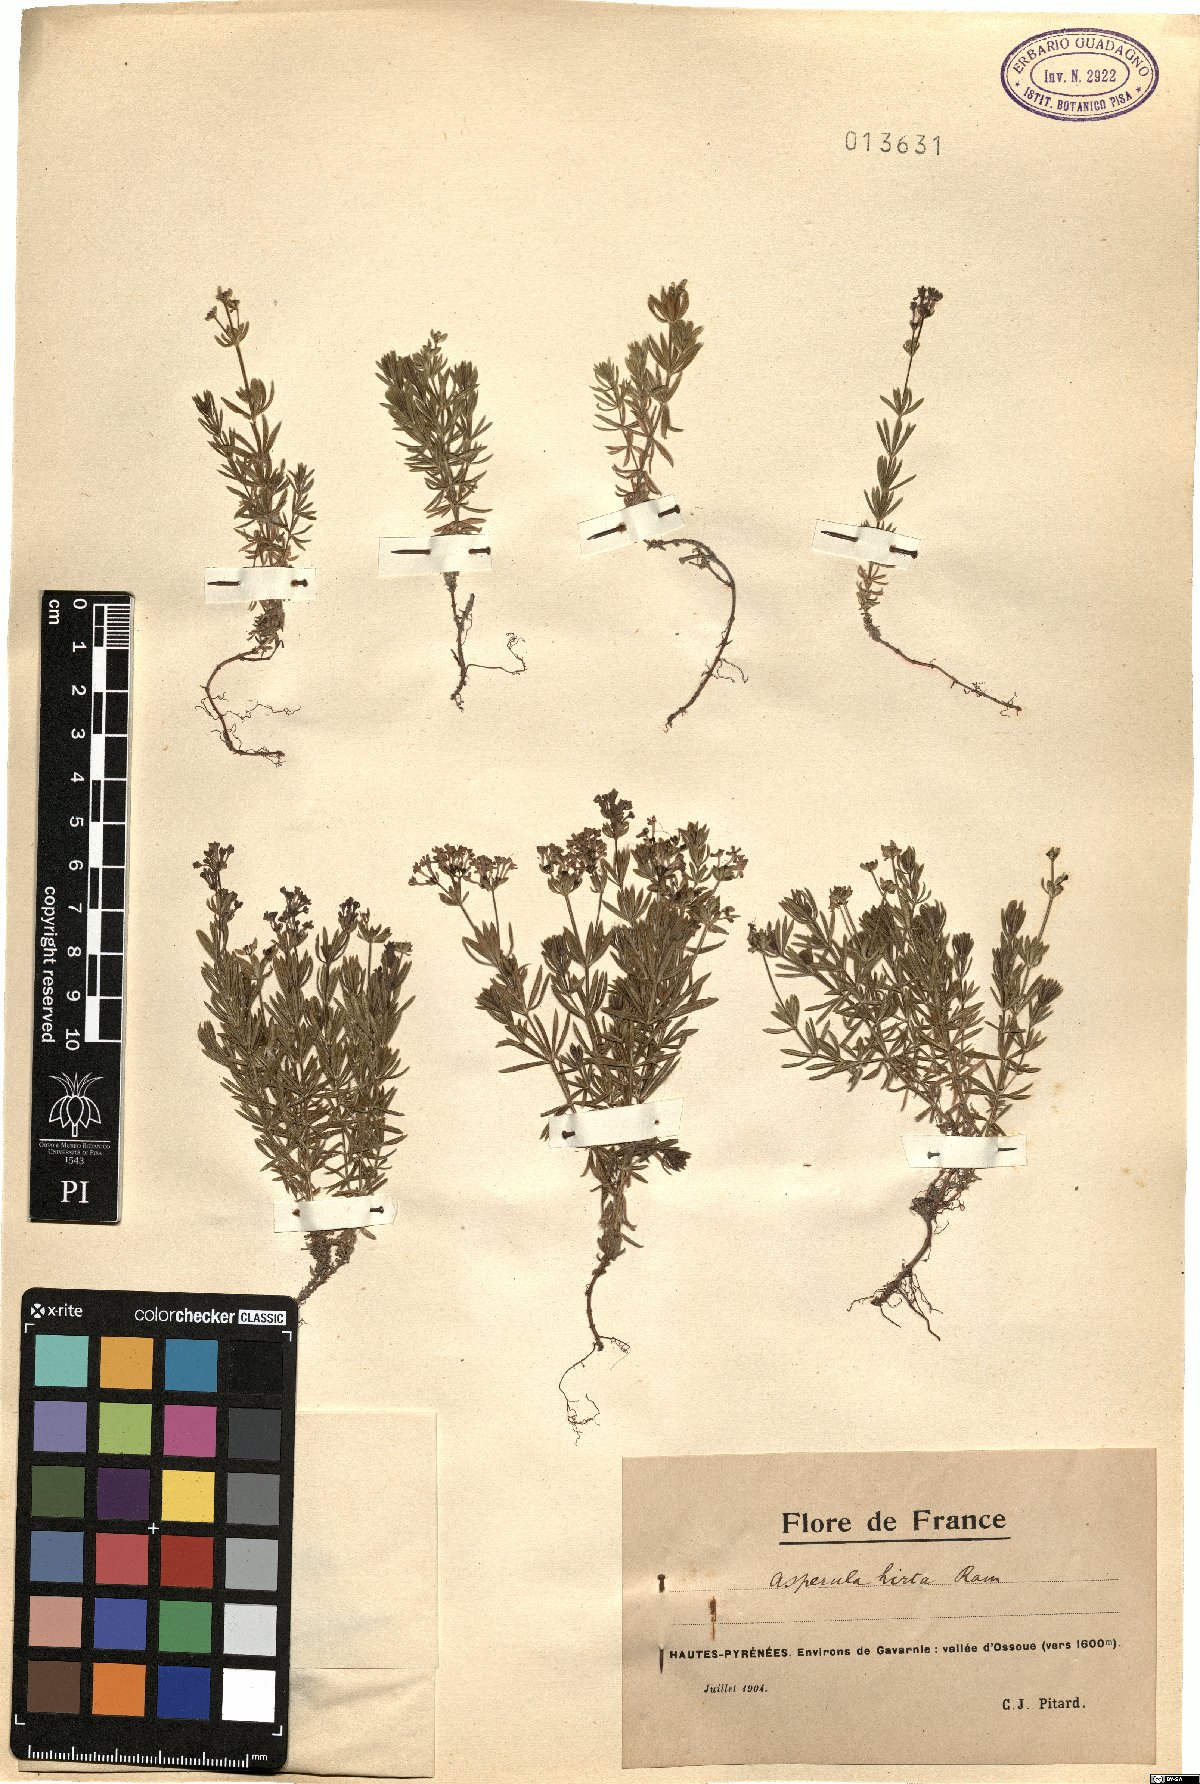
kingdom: Plantae
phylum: Tracheophyta
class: Magnoliopsida
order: Gentianales
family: Rubiaceae
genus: Hexaphylla
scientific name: Hexaphylla hirta
